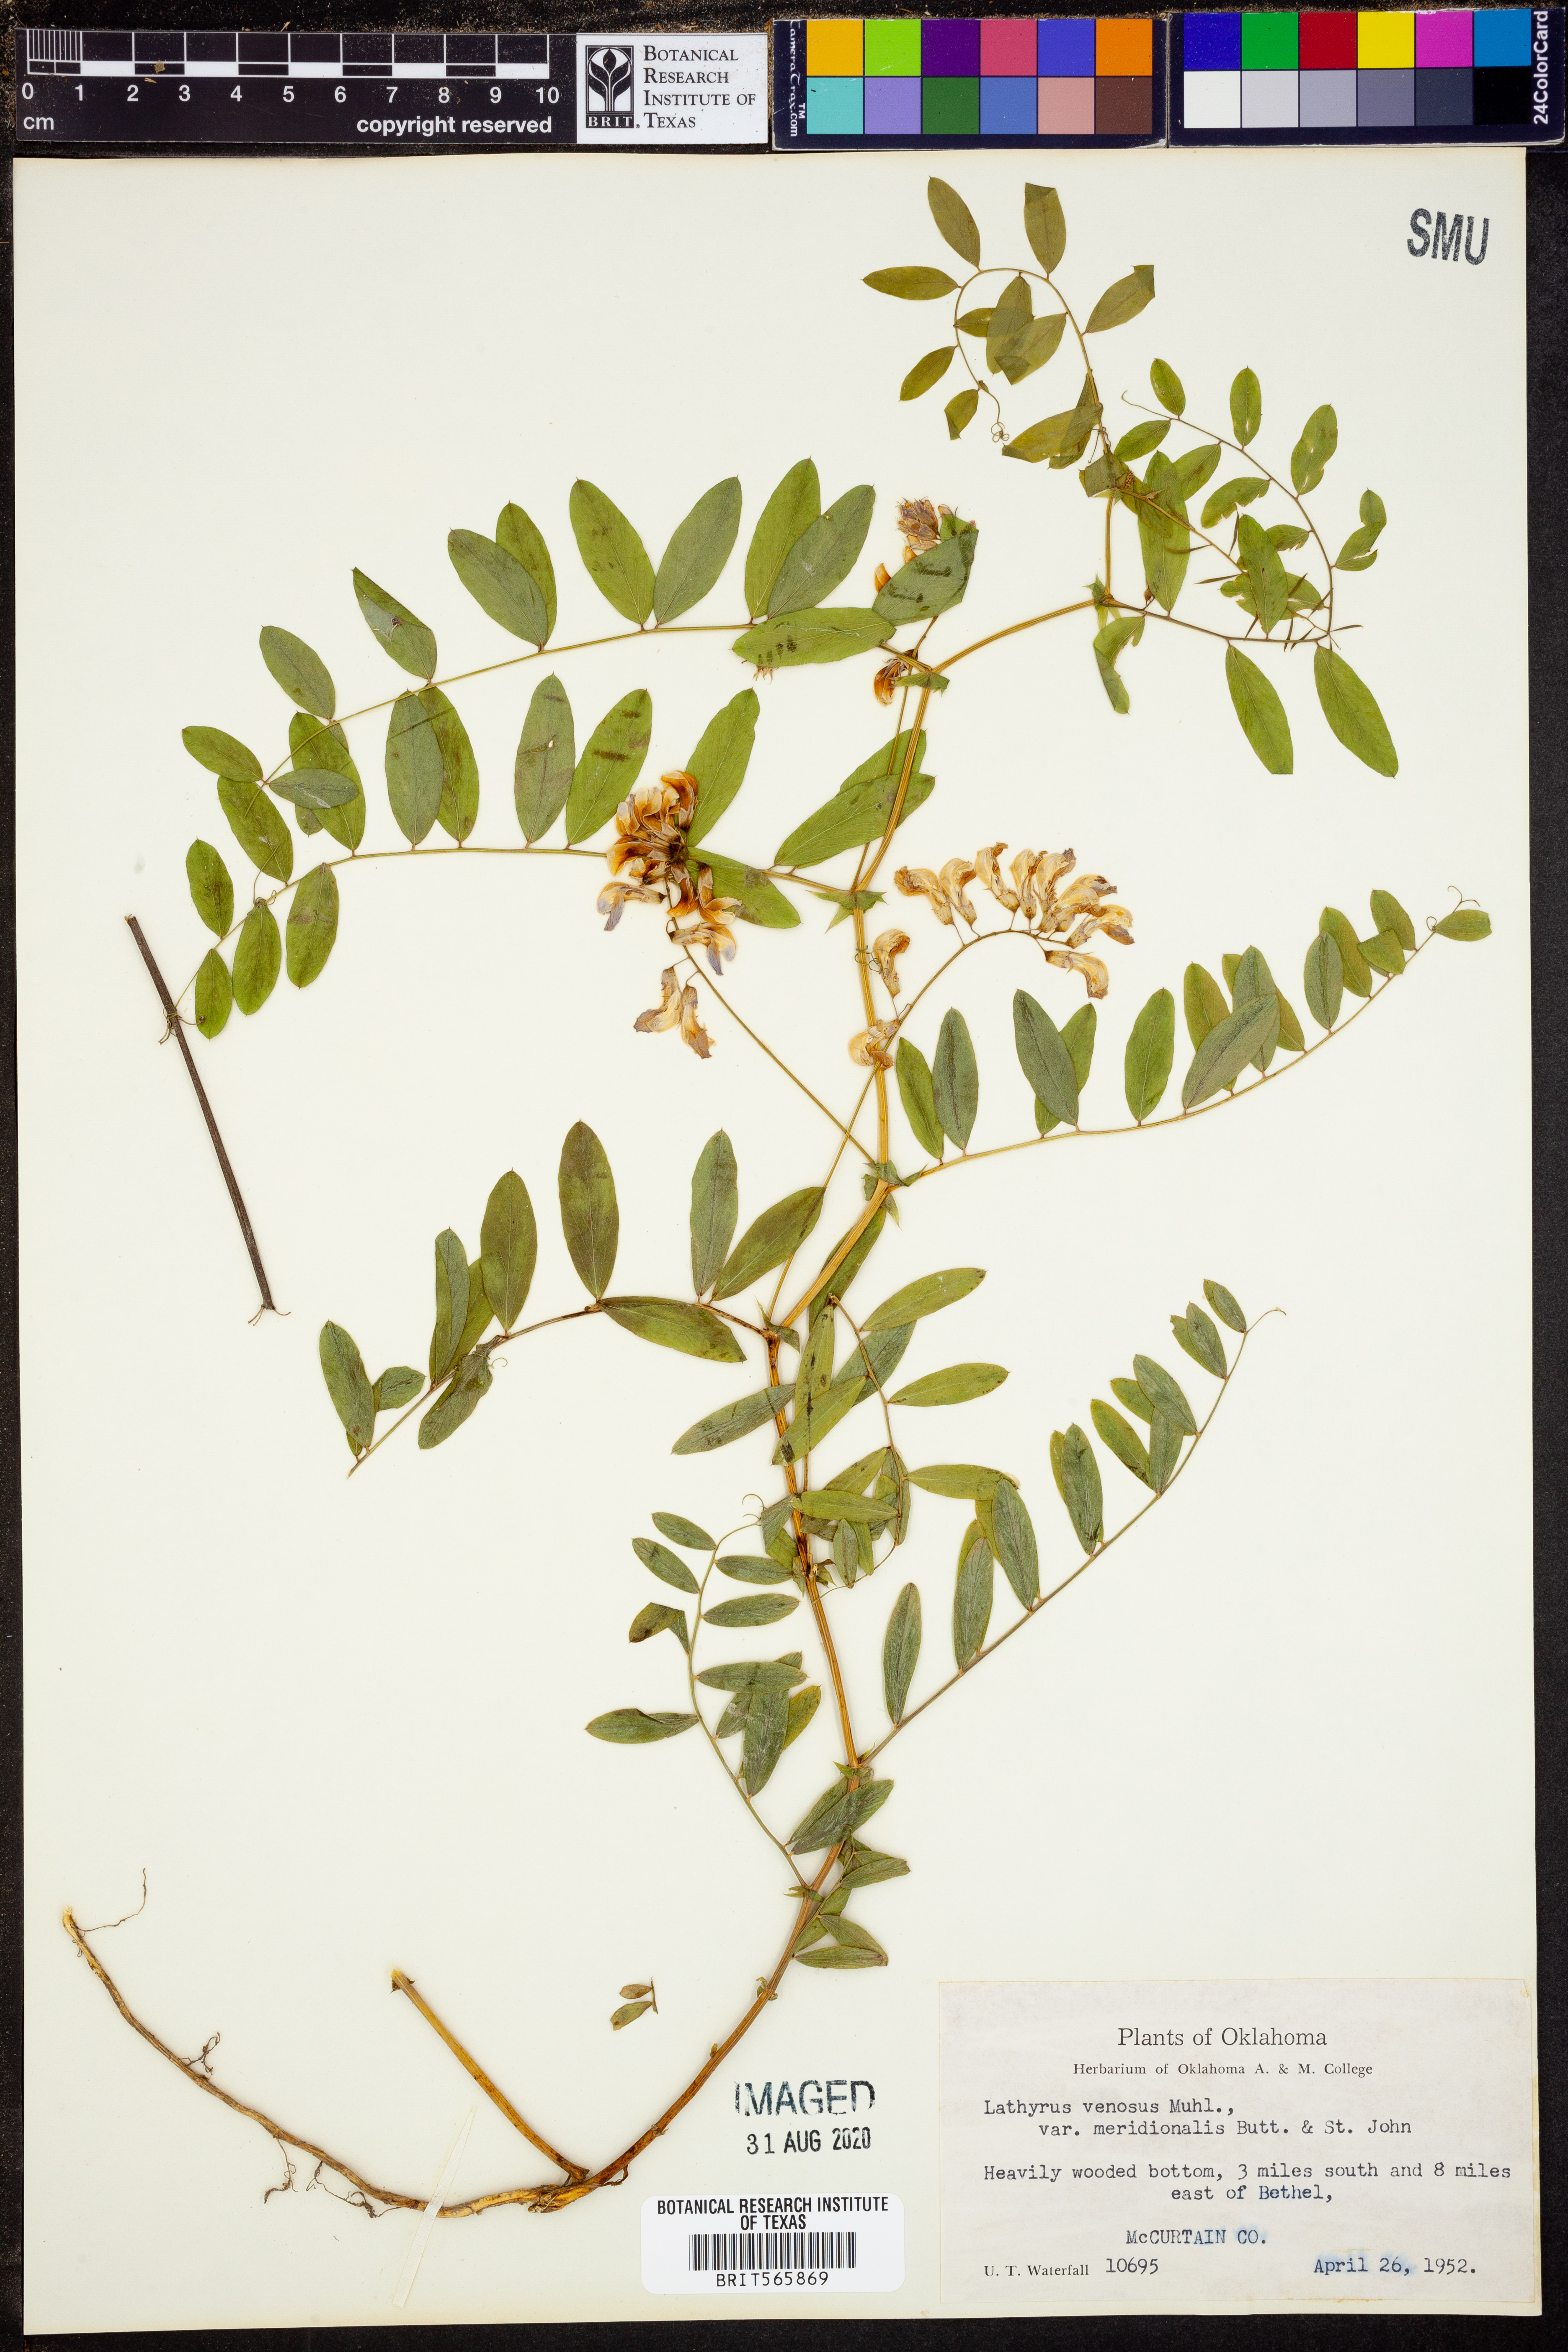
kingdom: Plantae
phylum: Tracheophyta
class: Magnoliopsida
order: Fabales
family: Fabaceae
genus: Lathyrus
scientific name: Lathyrus venosus
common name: Forest-pea
